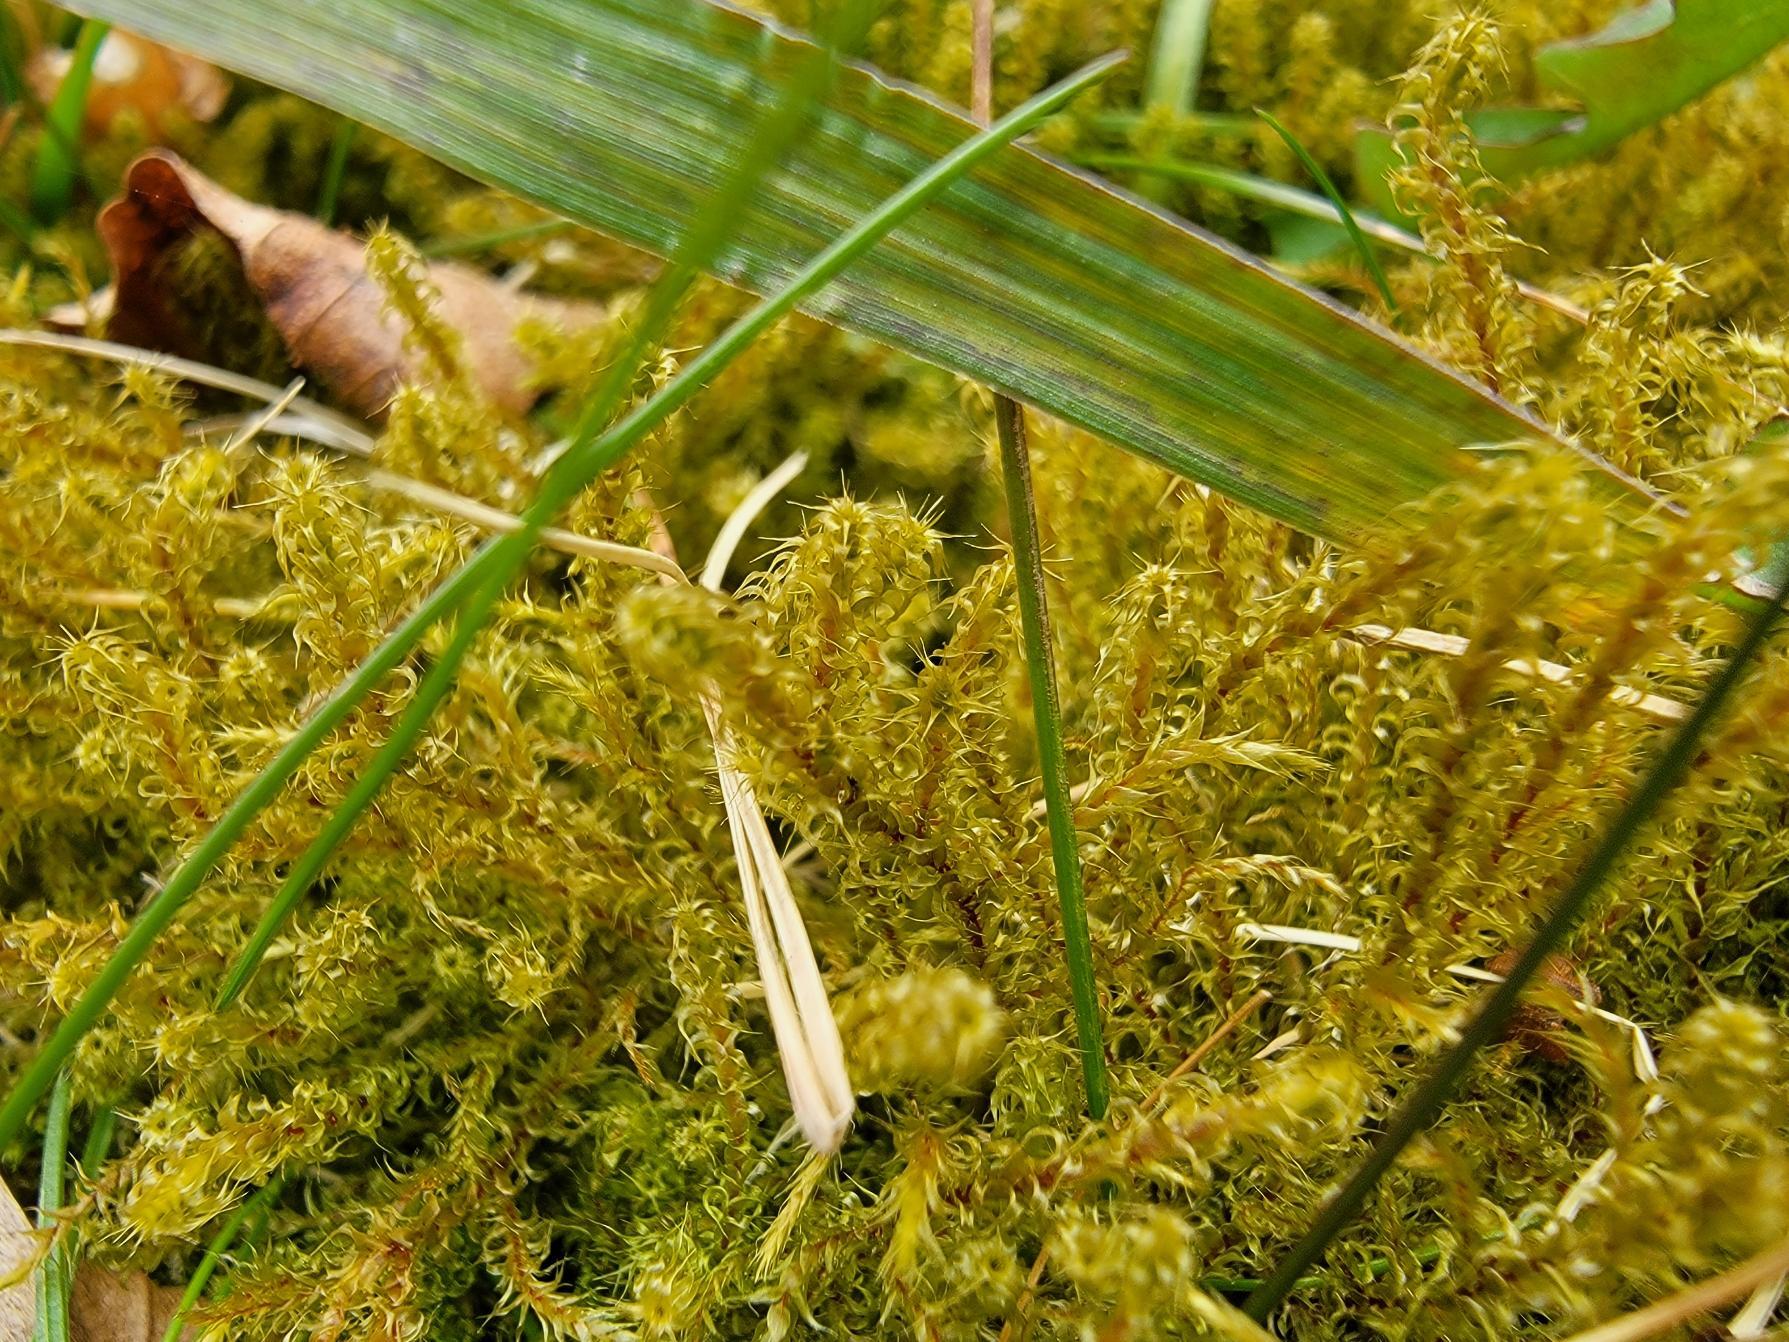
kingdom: Plantae
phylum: Bryophyta
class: Bryopsida
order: Hypnales
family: Hylocomiaceae
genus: Rhytidiadelphus
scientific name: Rhytidiadelphus squarrosus
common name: Plæne-kransemos
